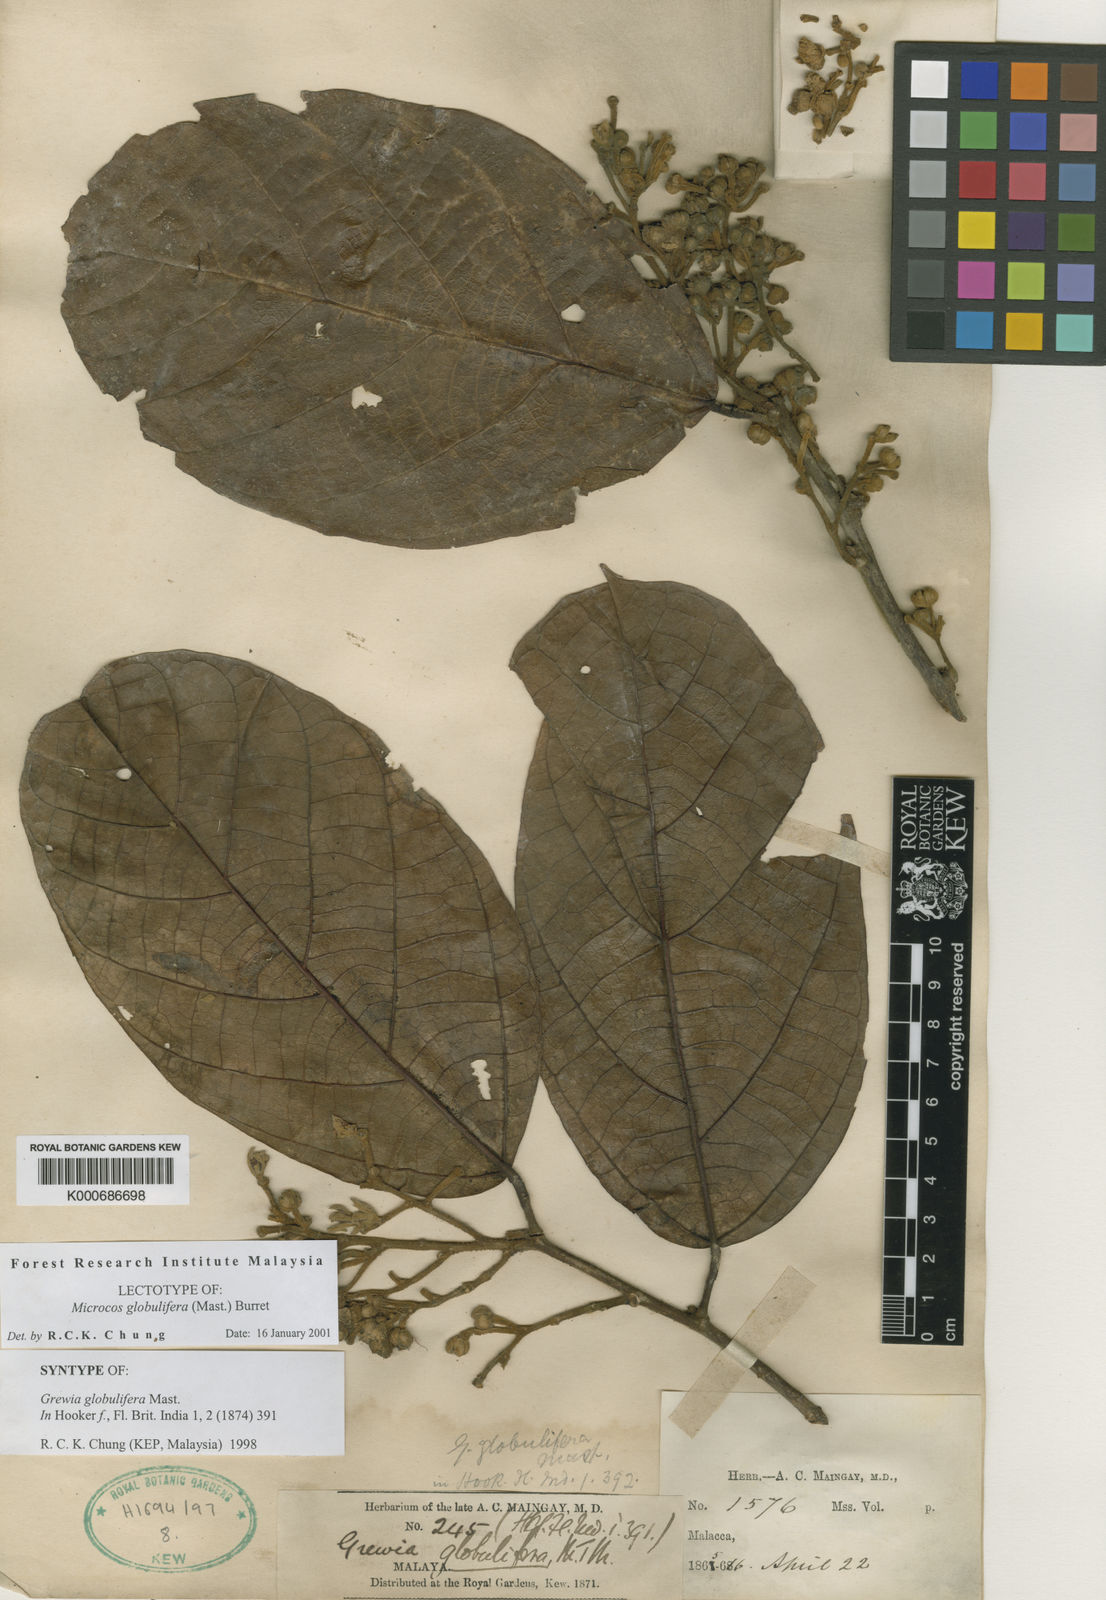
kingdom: Plantae
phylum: Tracheophyta
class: Magnoliopsida
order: Malvales
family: Malvaceae
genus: Microcos
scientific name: Microcos globulifera
